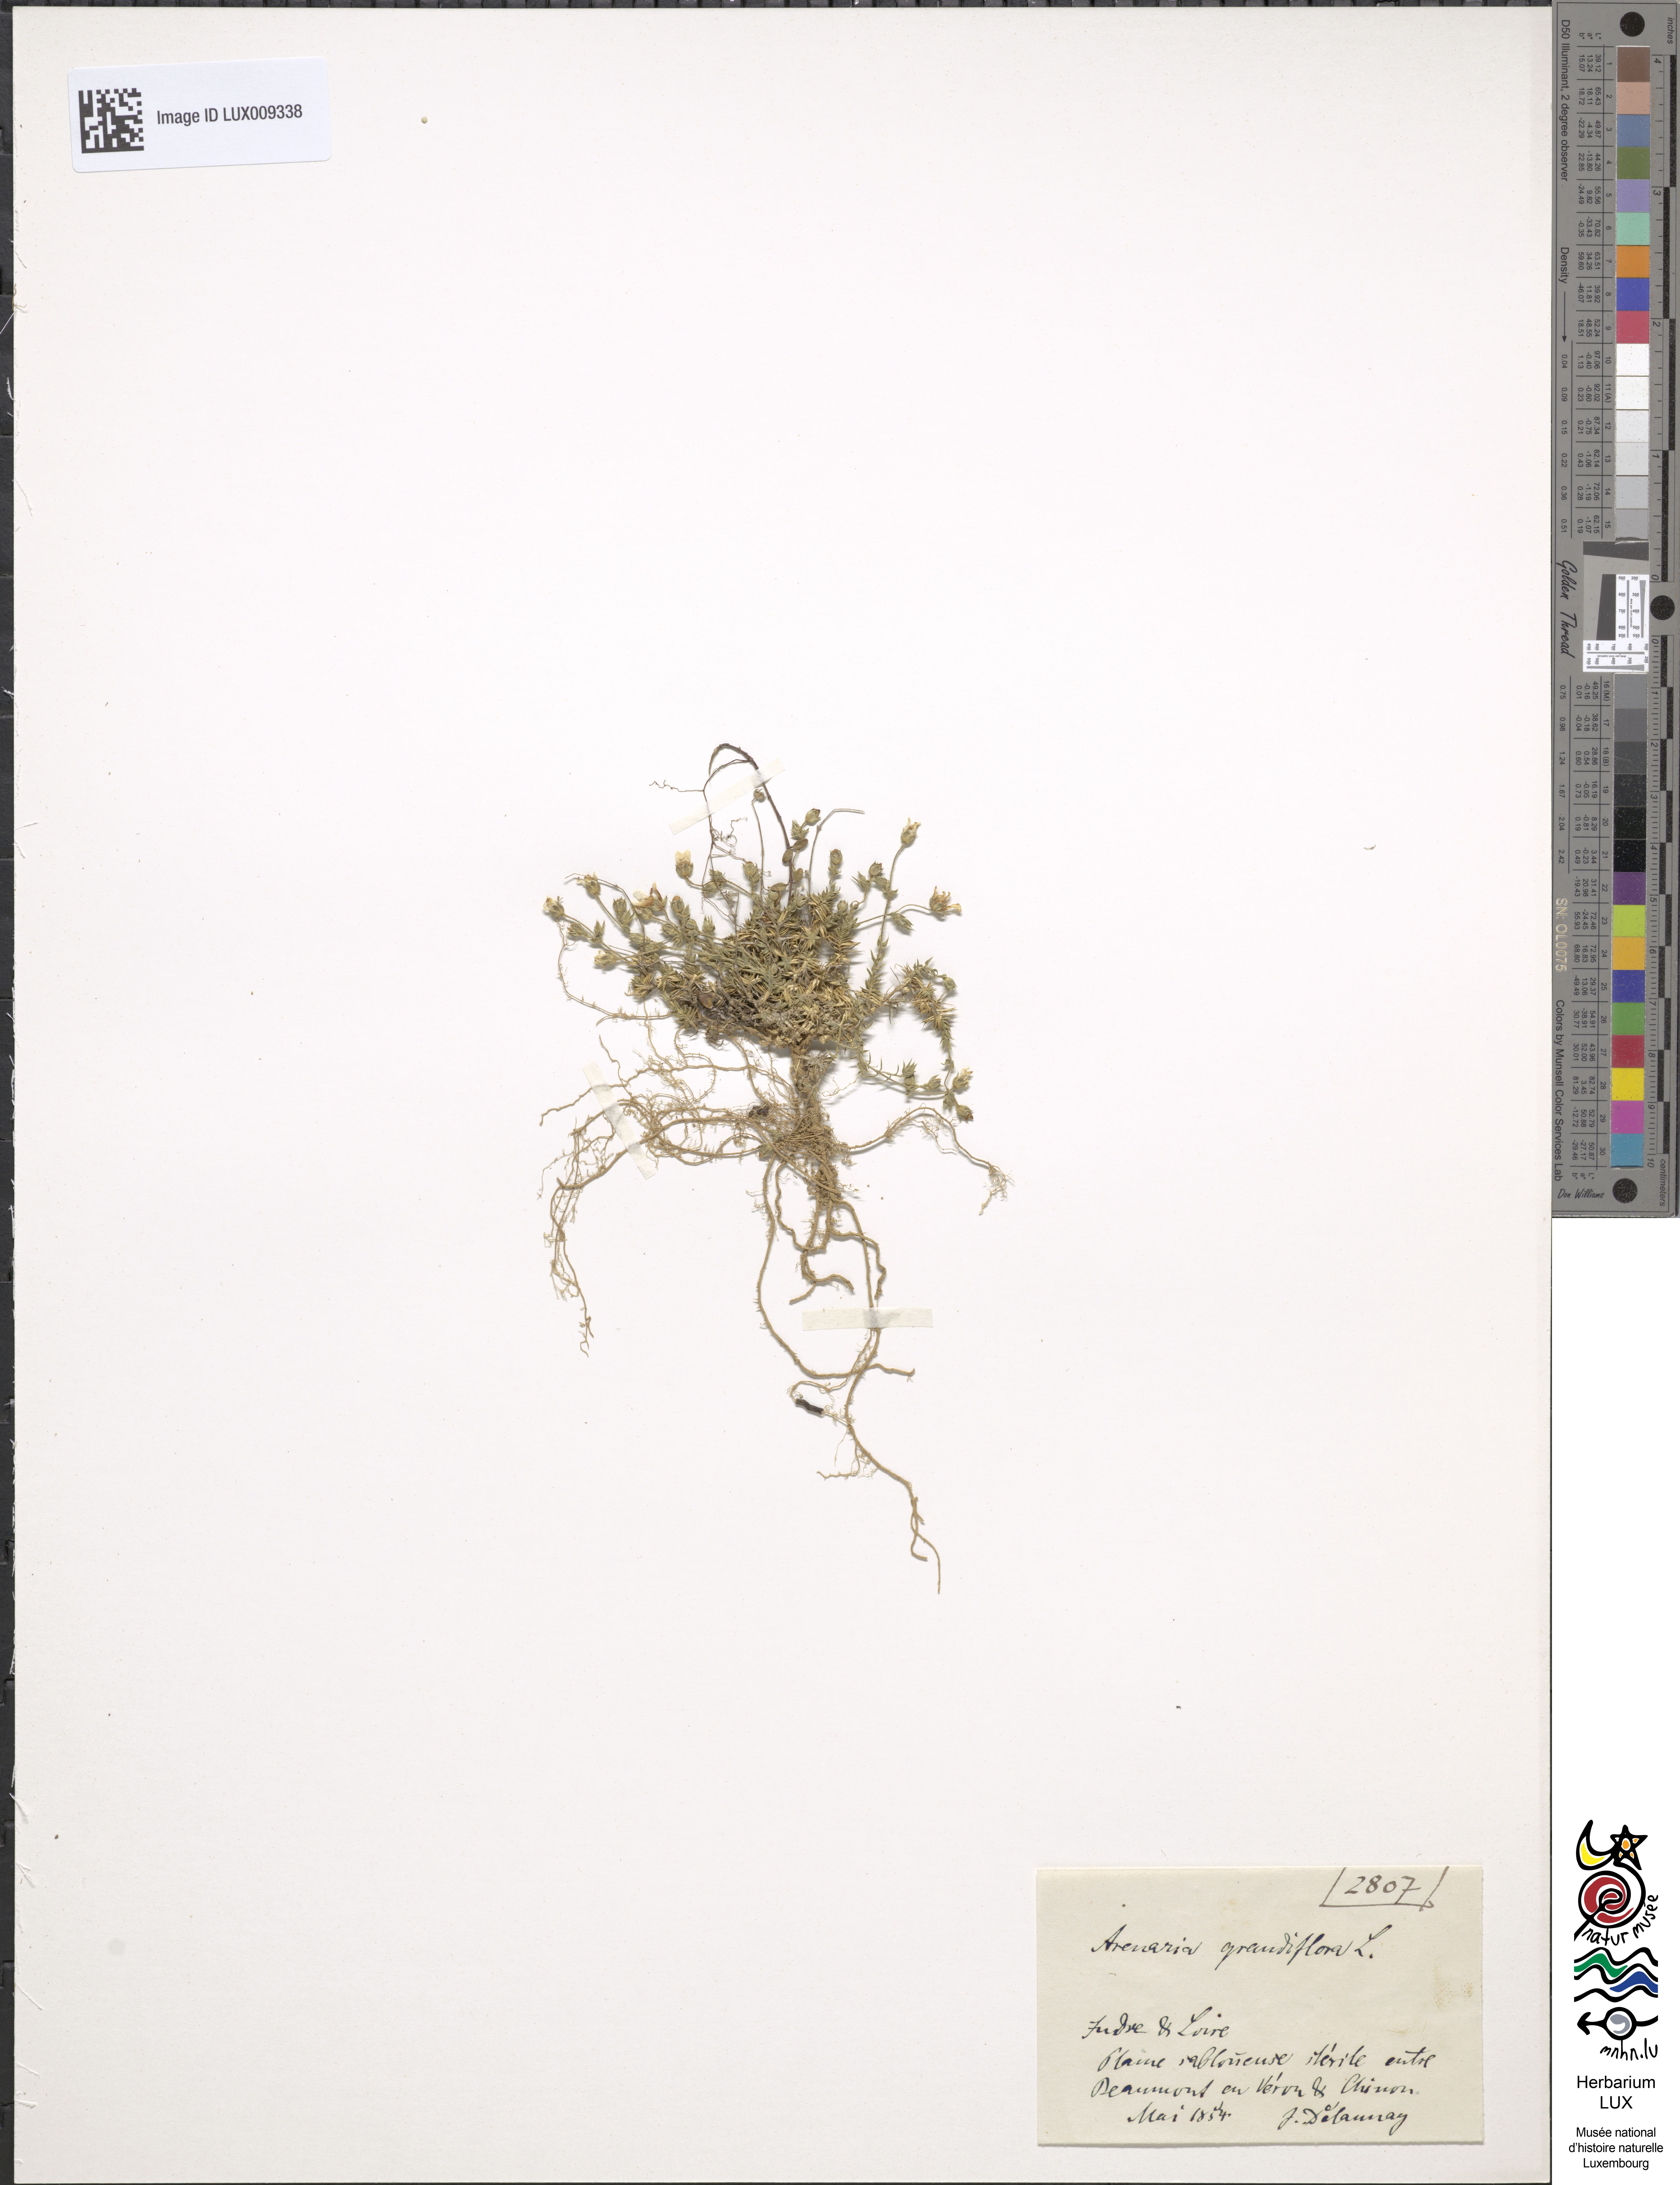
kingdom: Animalia
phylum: Chordata
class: Aves
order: Charadriiformes
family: Scolopacidae
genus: Arenaria
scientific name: Arenaria
